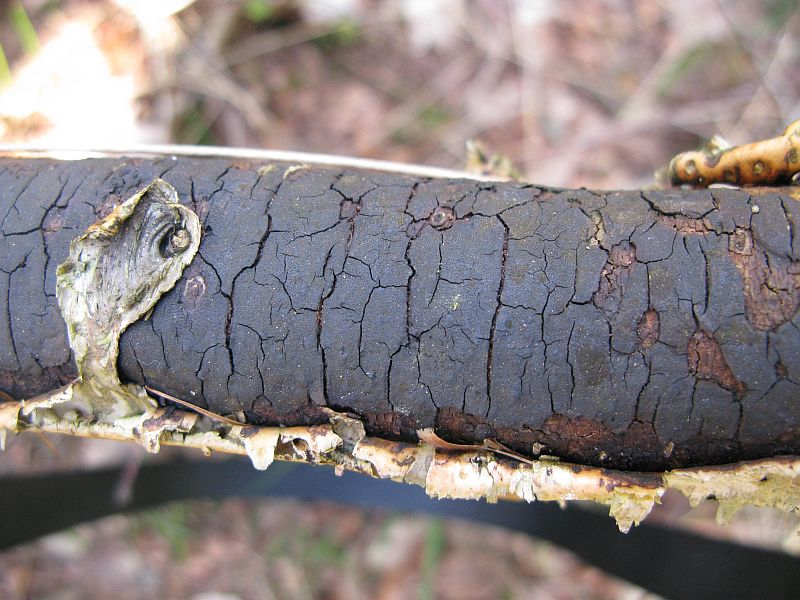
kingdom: Fungi
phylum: Ascomycota
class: Sordariomycetes
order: Xylariales
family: Diatrypaceae
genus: Diatrype
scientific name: Diatrype stigma
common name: udbredt kulskorpe
